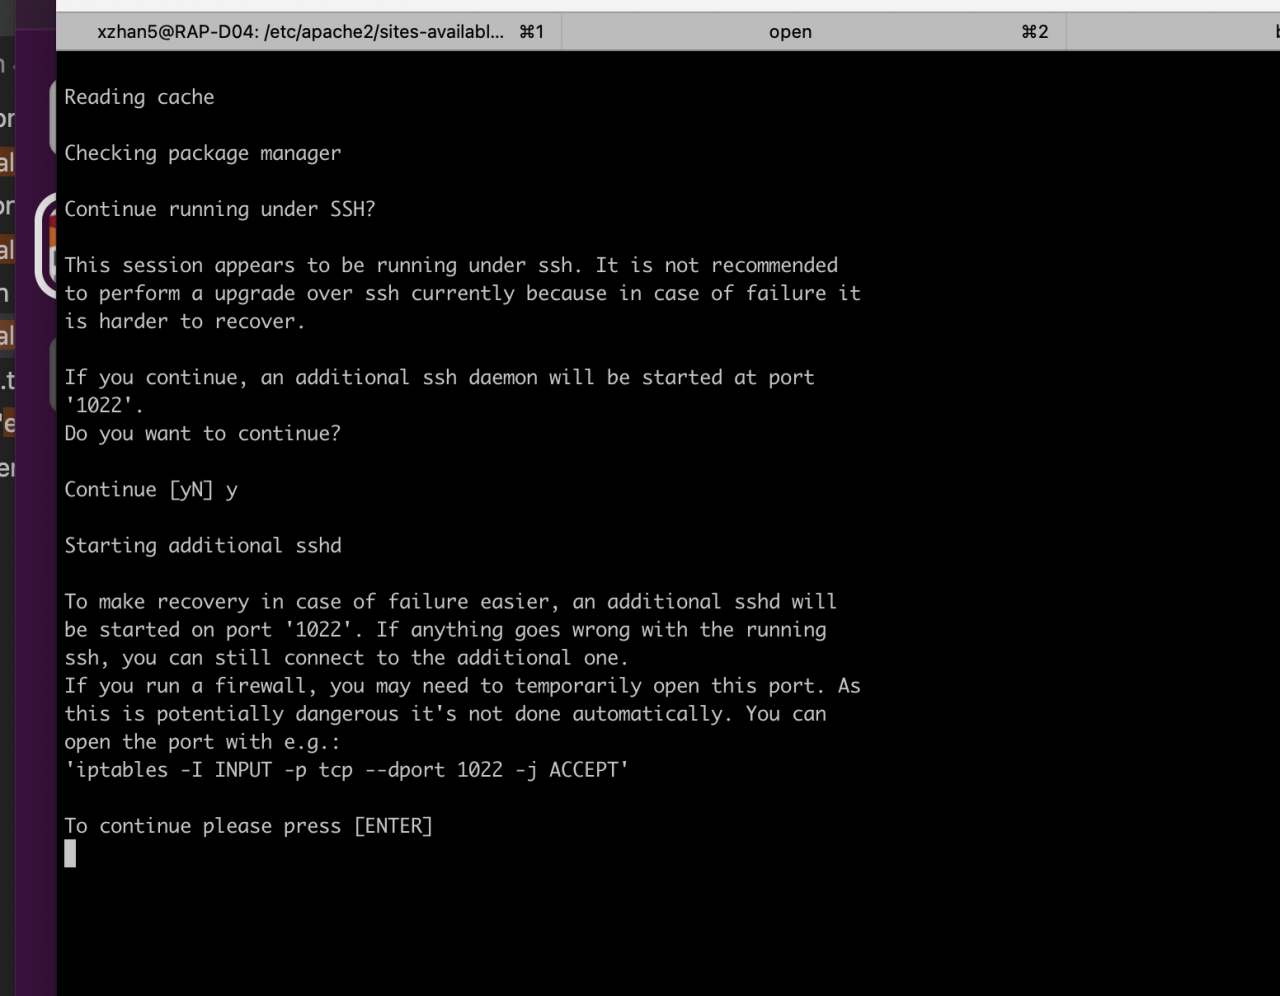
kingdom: Animalia
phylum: Arthropoda
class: Insecta
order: Lepidoptera
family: Nymphalidae
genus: Danaus
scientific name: Danaus plexippus
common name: Monarch
